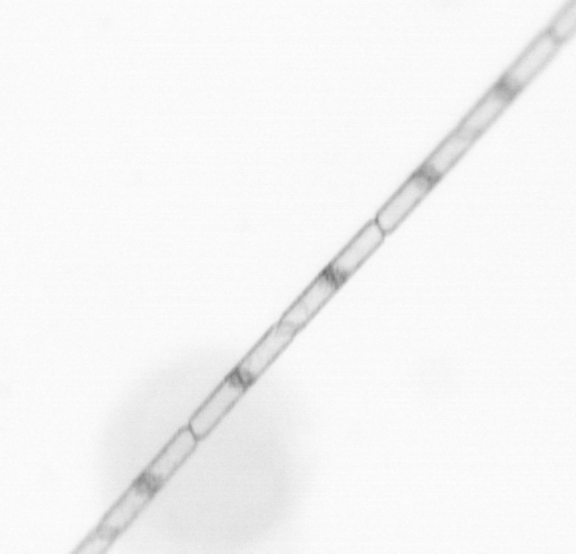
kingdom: Chromista
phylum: Ochrophyta
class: Bacillariophyceae
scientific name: Bacillariophyceae
